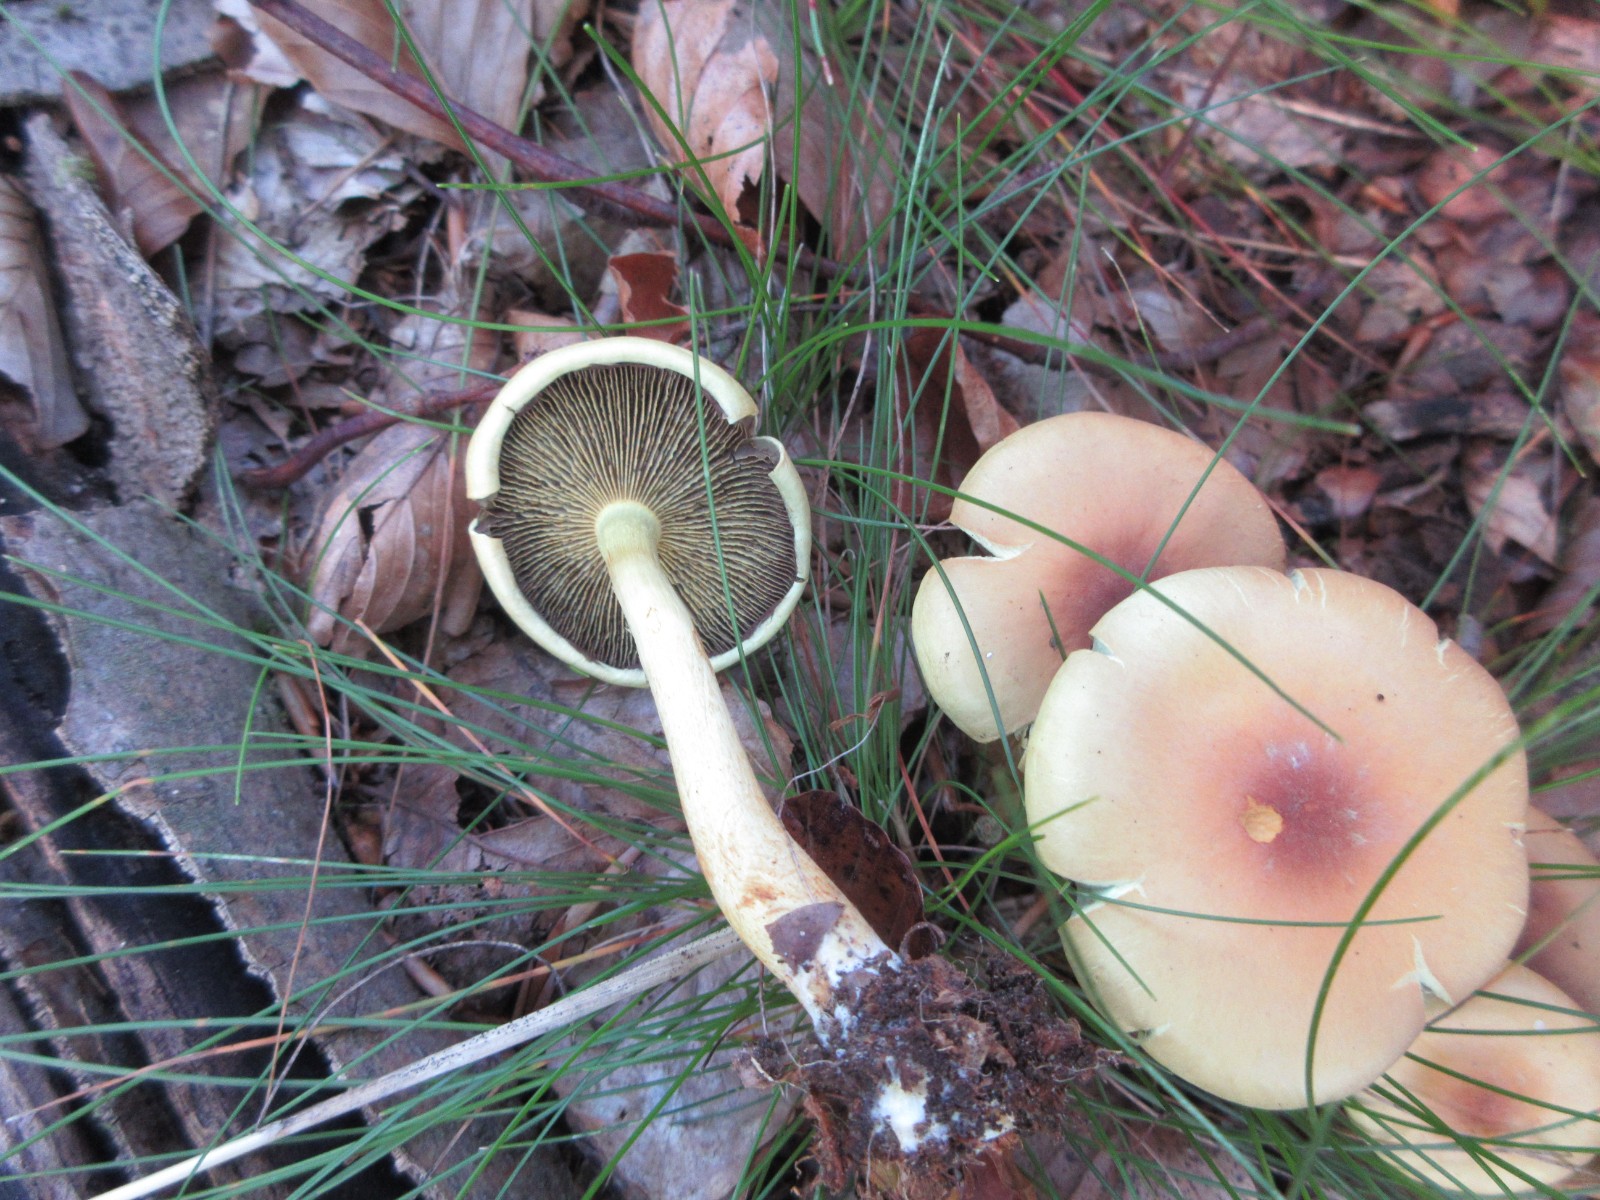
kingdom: Fungi
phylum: Basidiomycota
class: Agaricomycetes
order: Agaricales
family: Strophariaceae
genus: Hypholoma
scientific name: Hypholoma fasciculare
